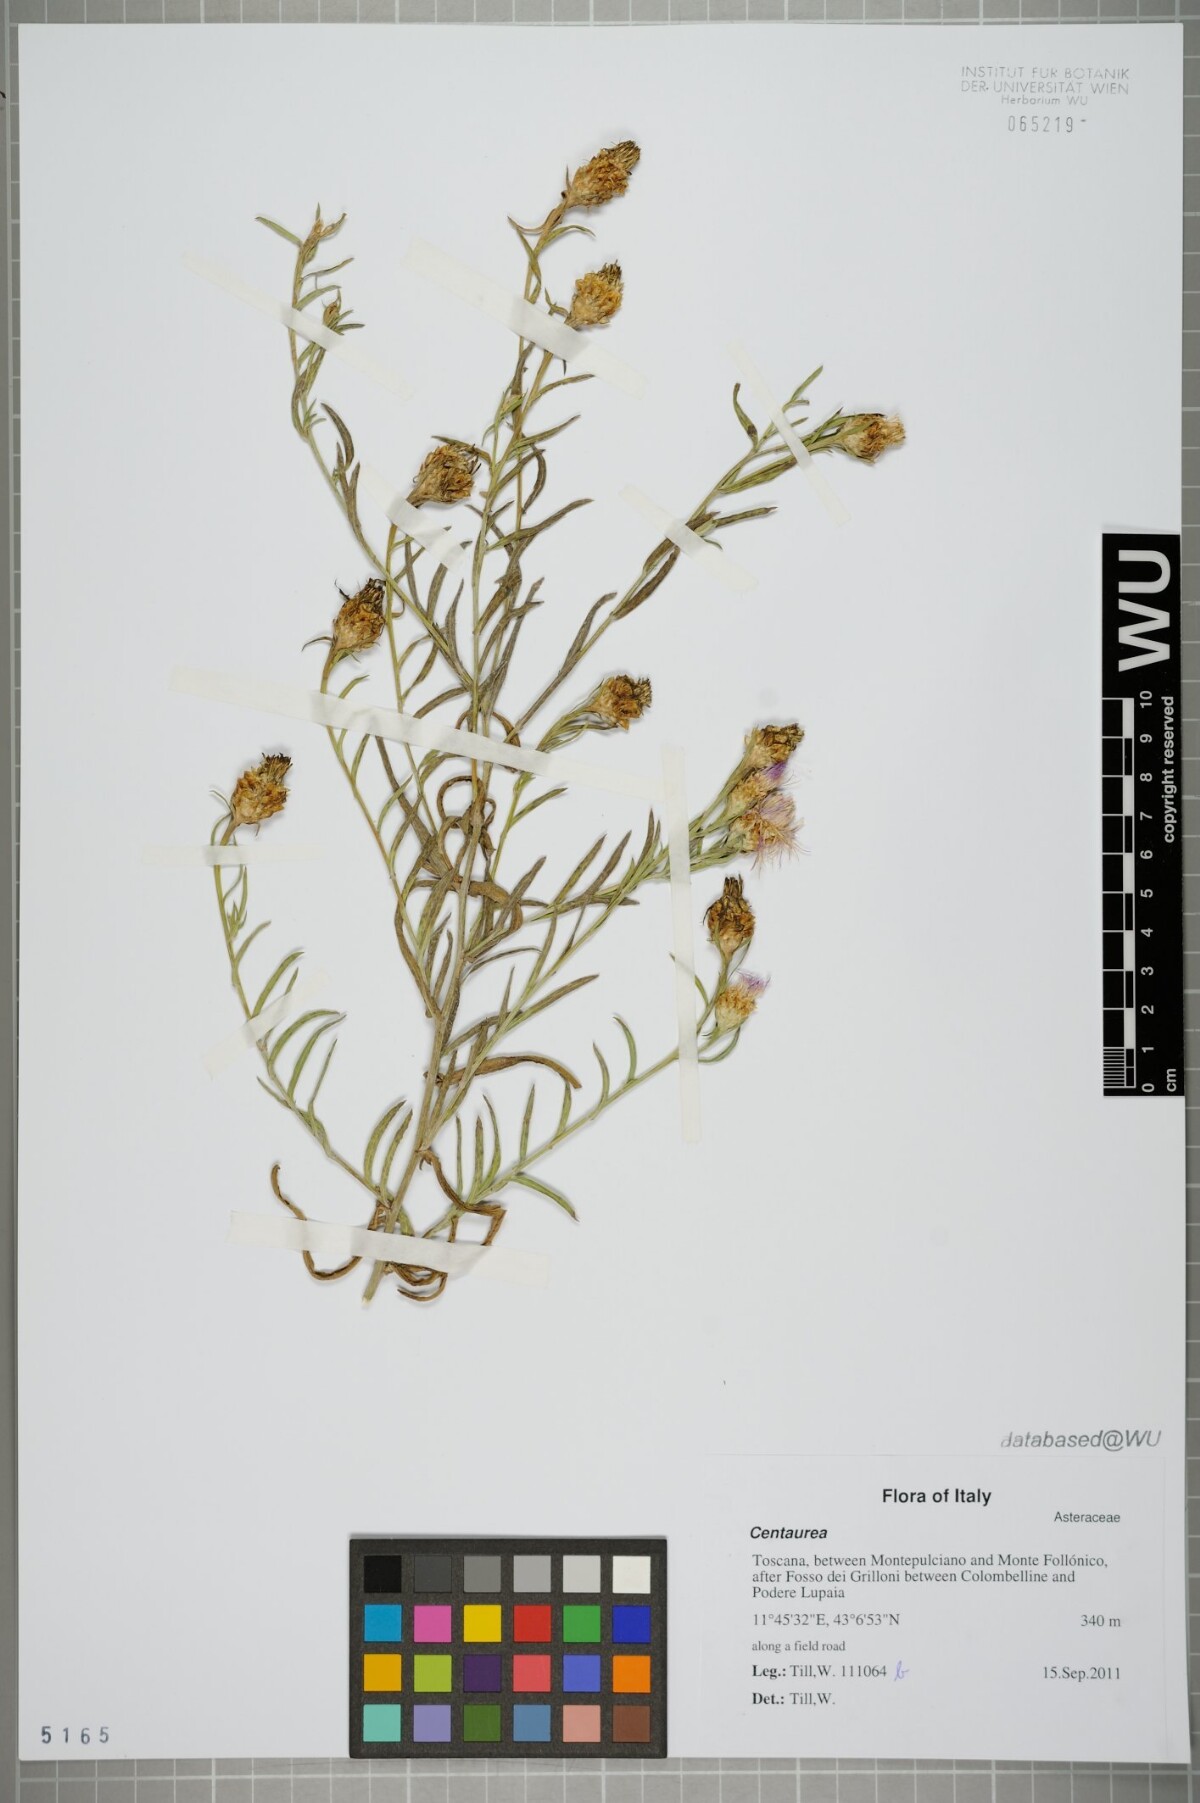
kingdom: Plantae
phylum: Tracheophyta
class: Magnoliopsida
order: Asterales
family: Asteraceae
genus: Centaurea
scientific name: Centaurea
